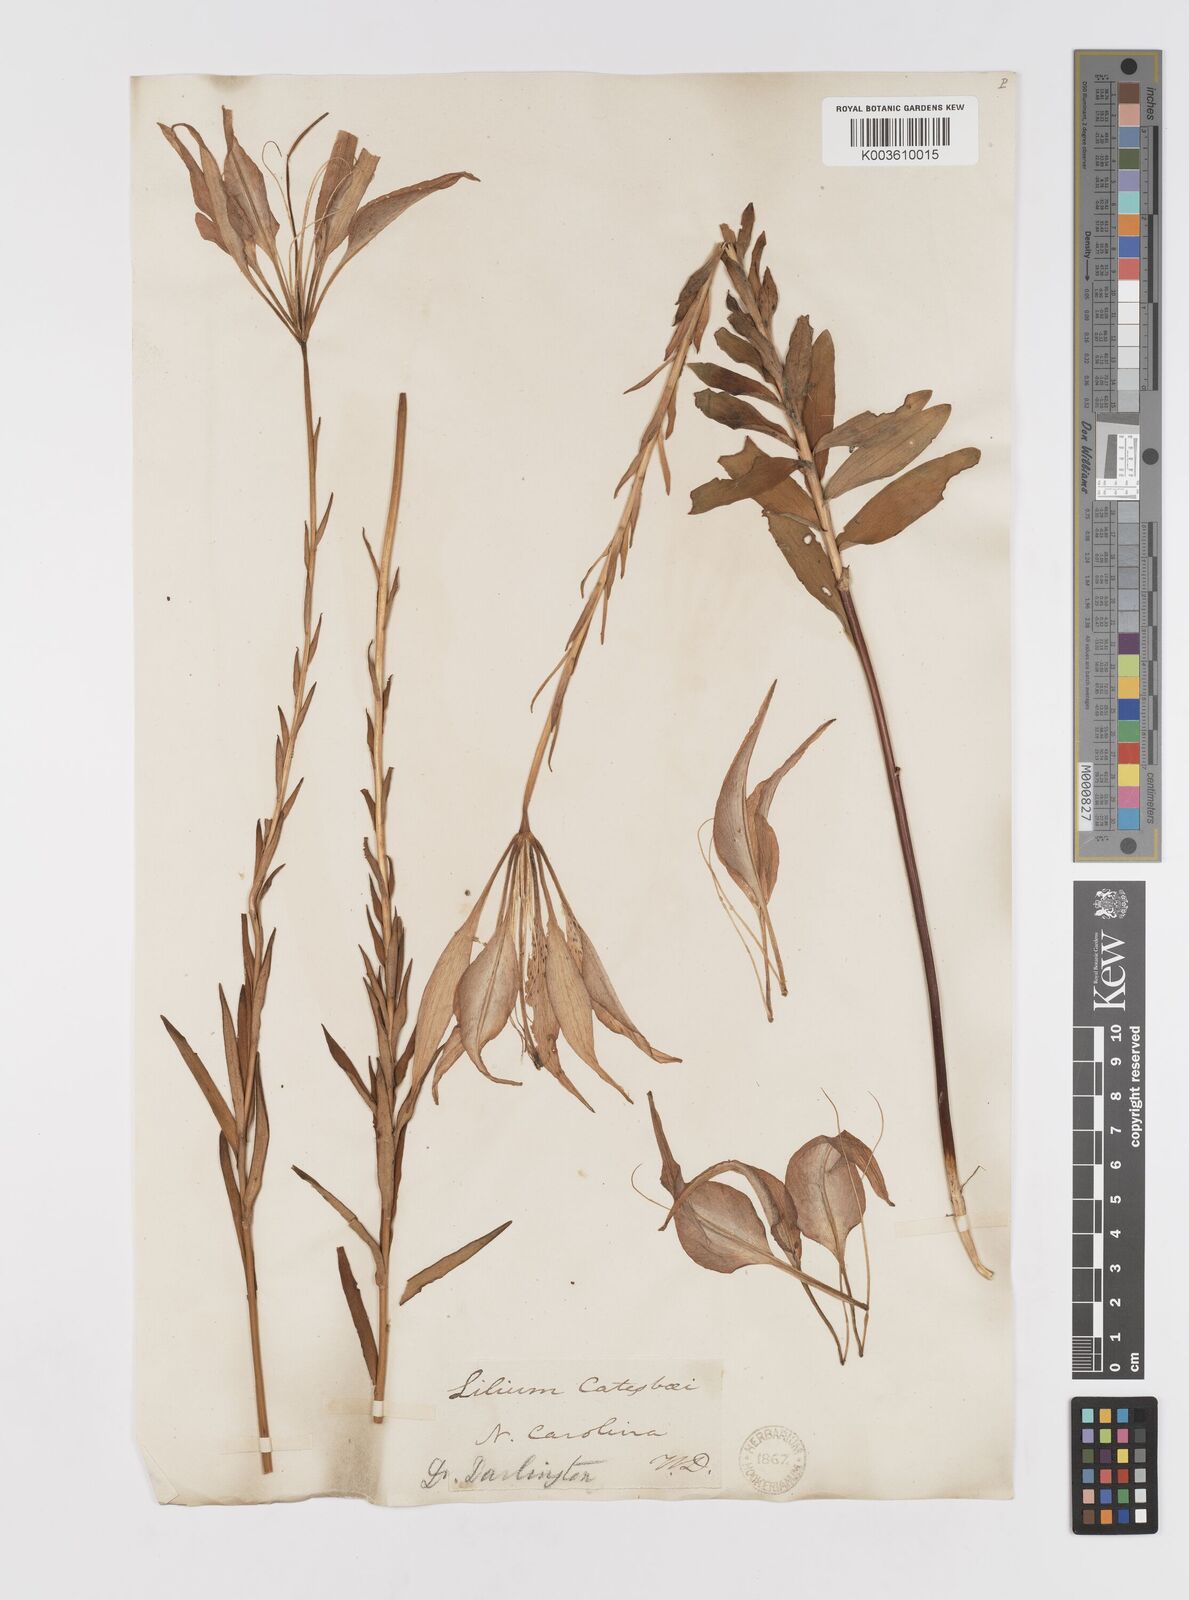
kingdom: Plantae
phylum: Tracheophyta
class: Liliopsida
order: Liliales
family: Liliaceae
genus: Lilium
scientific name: Lilium catesbaei
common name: Catesby's lily
